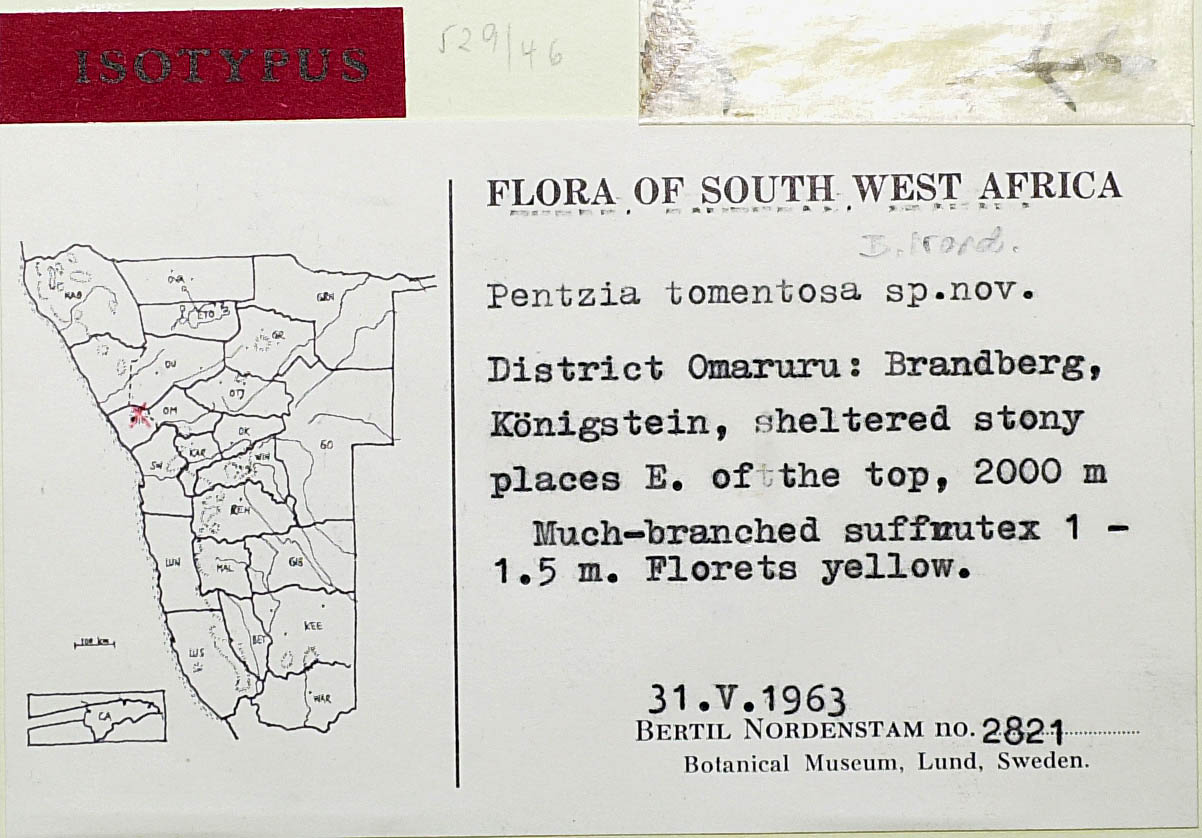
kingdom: Plantae
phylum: Tracheophyta
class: Magnoliopsida
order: Asterales
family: Asteraceae
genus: Pentzia
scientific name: Pentzia tomentosa
